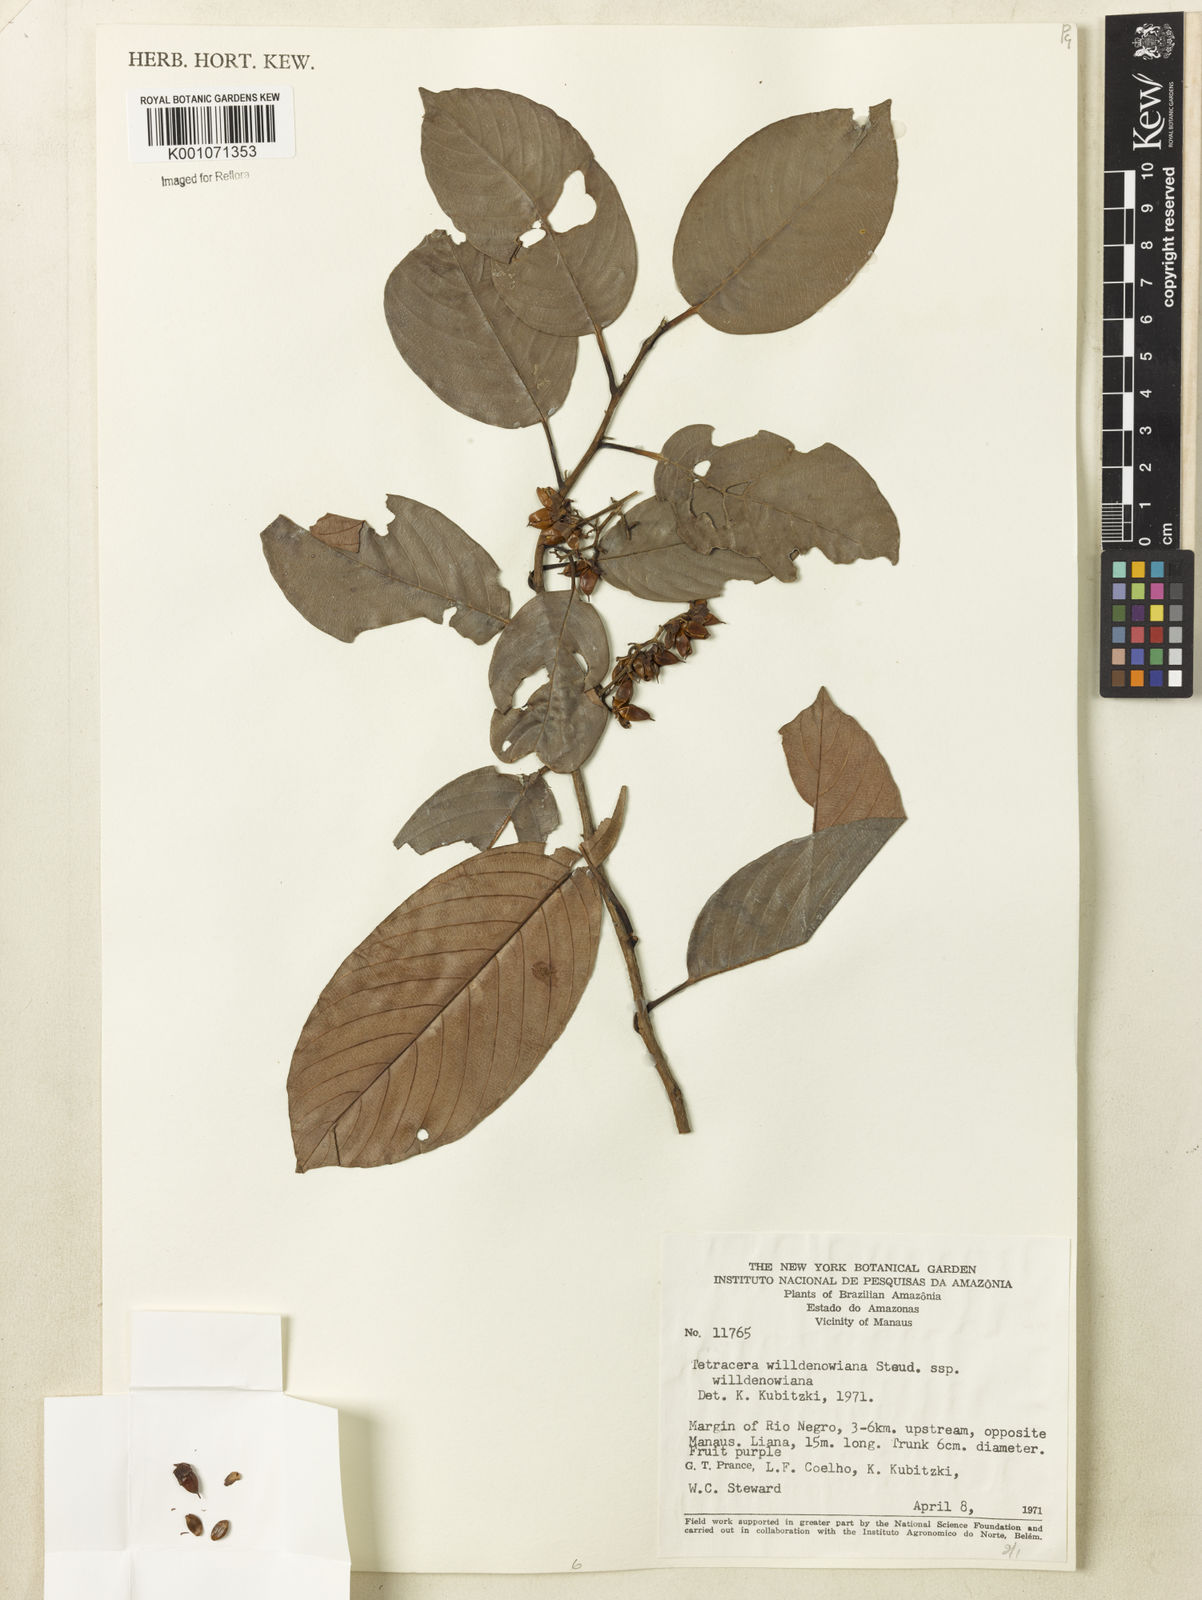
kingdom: Plantae
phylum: Tracheophyta
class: Magnoliopsida
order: Dilleniales
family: Dilleniaceae
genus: Tetracera
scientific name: Tetracera willdenowiana
